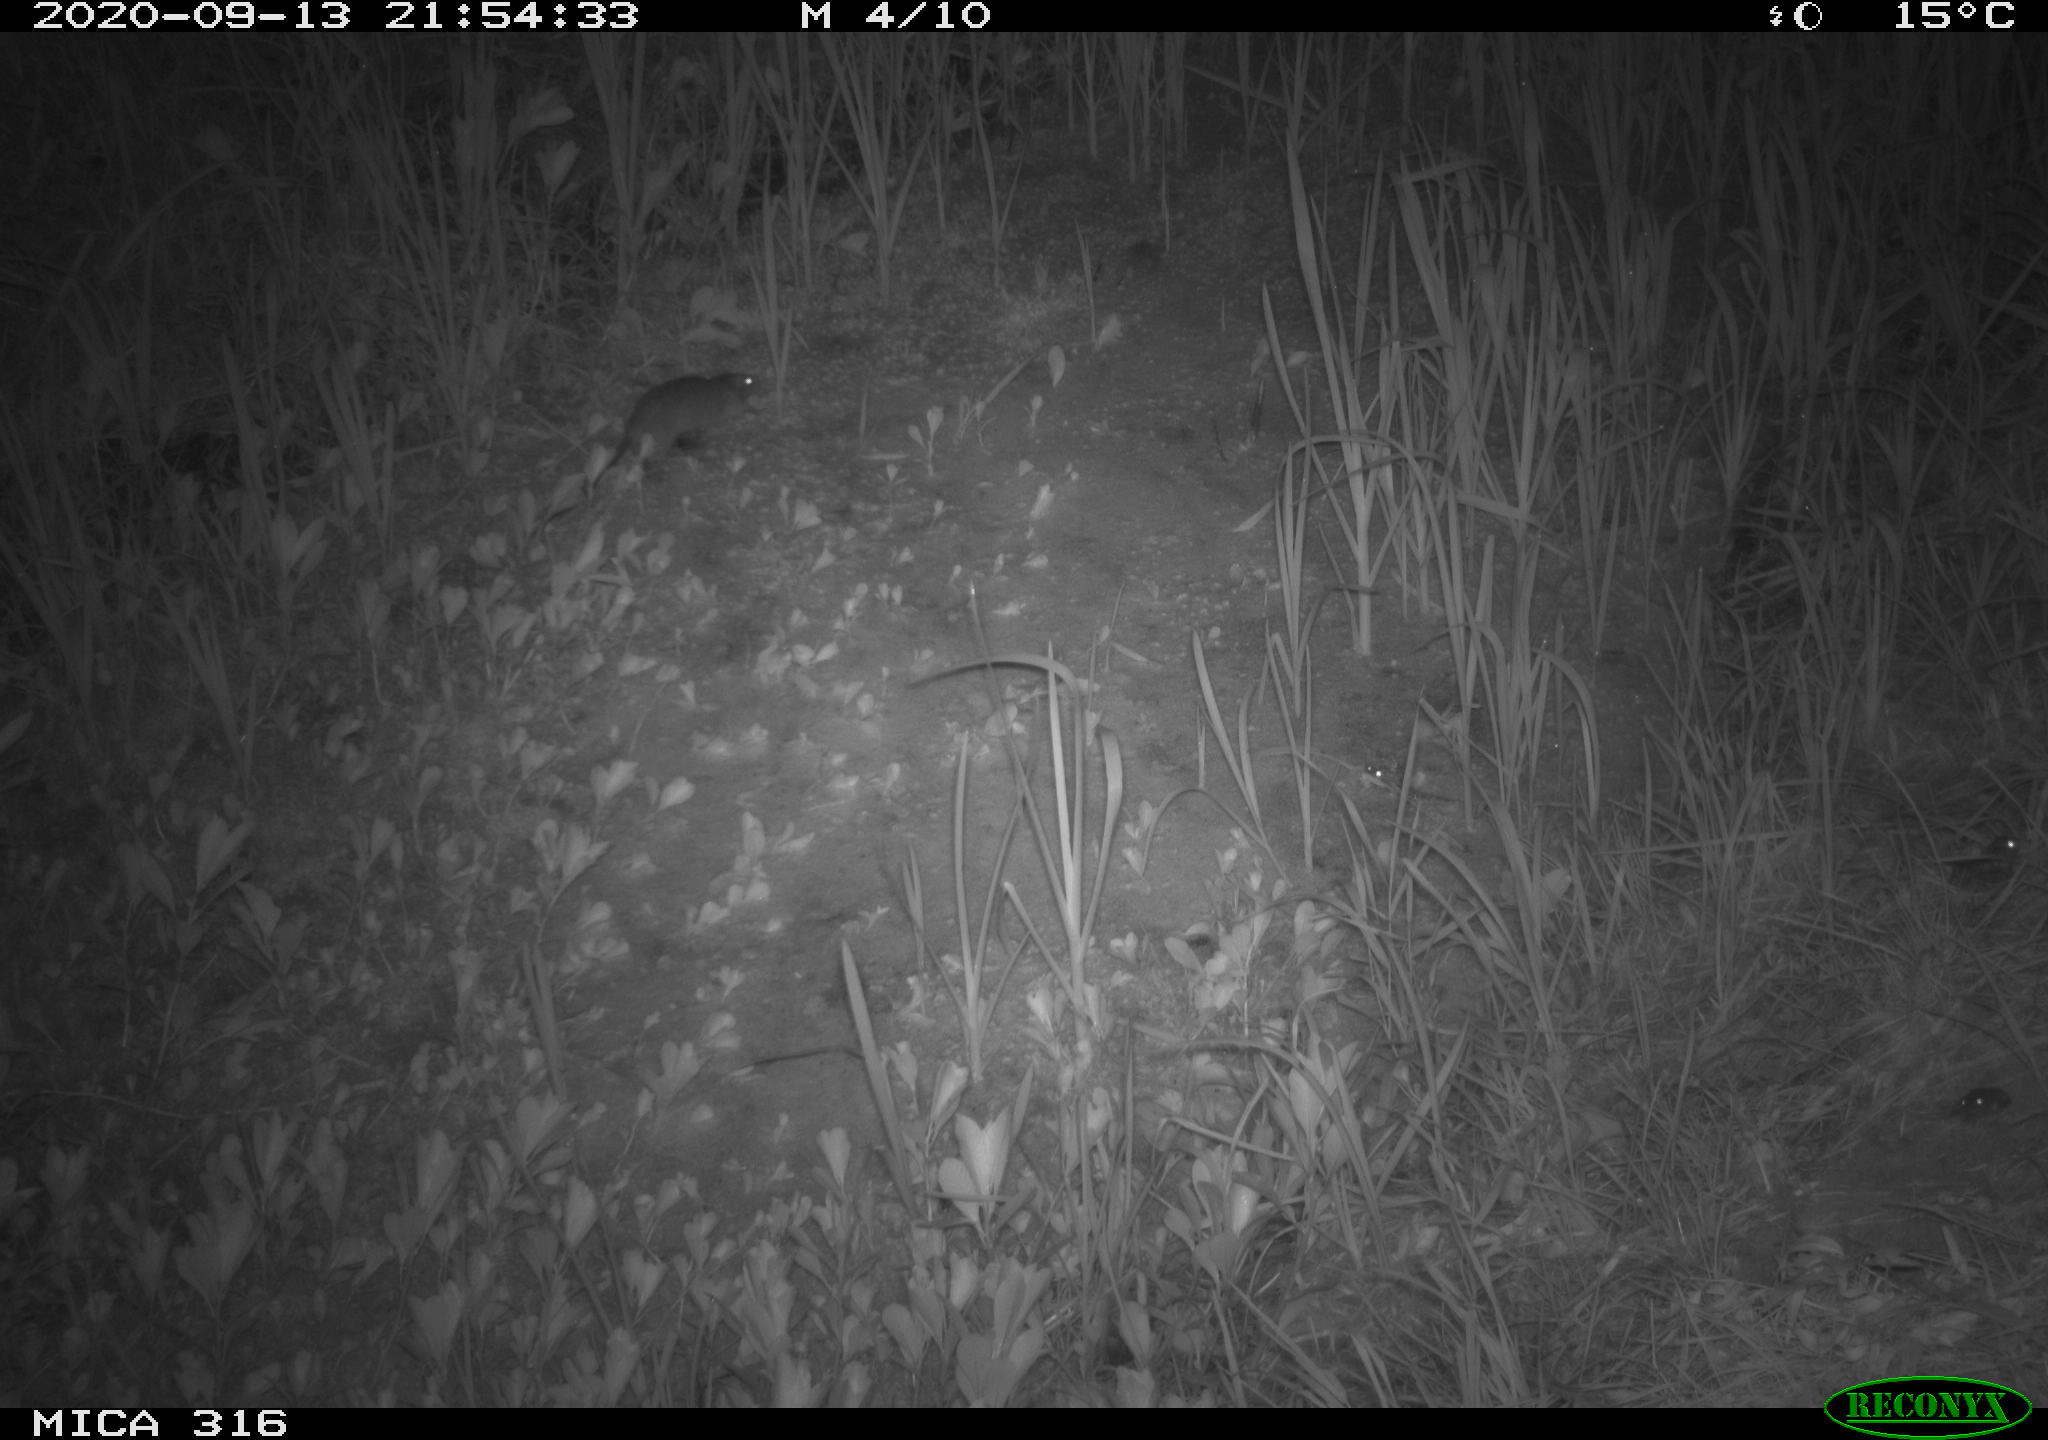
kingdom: Animalia
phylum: Chordata
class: Mammalia
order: Rodentia
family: Muridae
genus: Rattus
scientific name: Rattus norvegicus
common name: Brown rat
